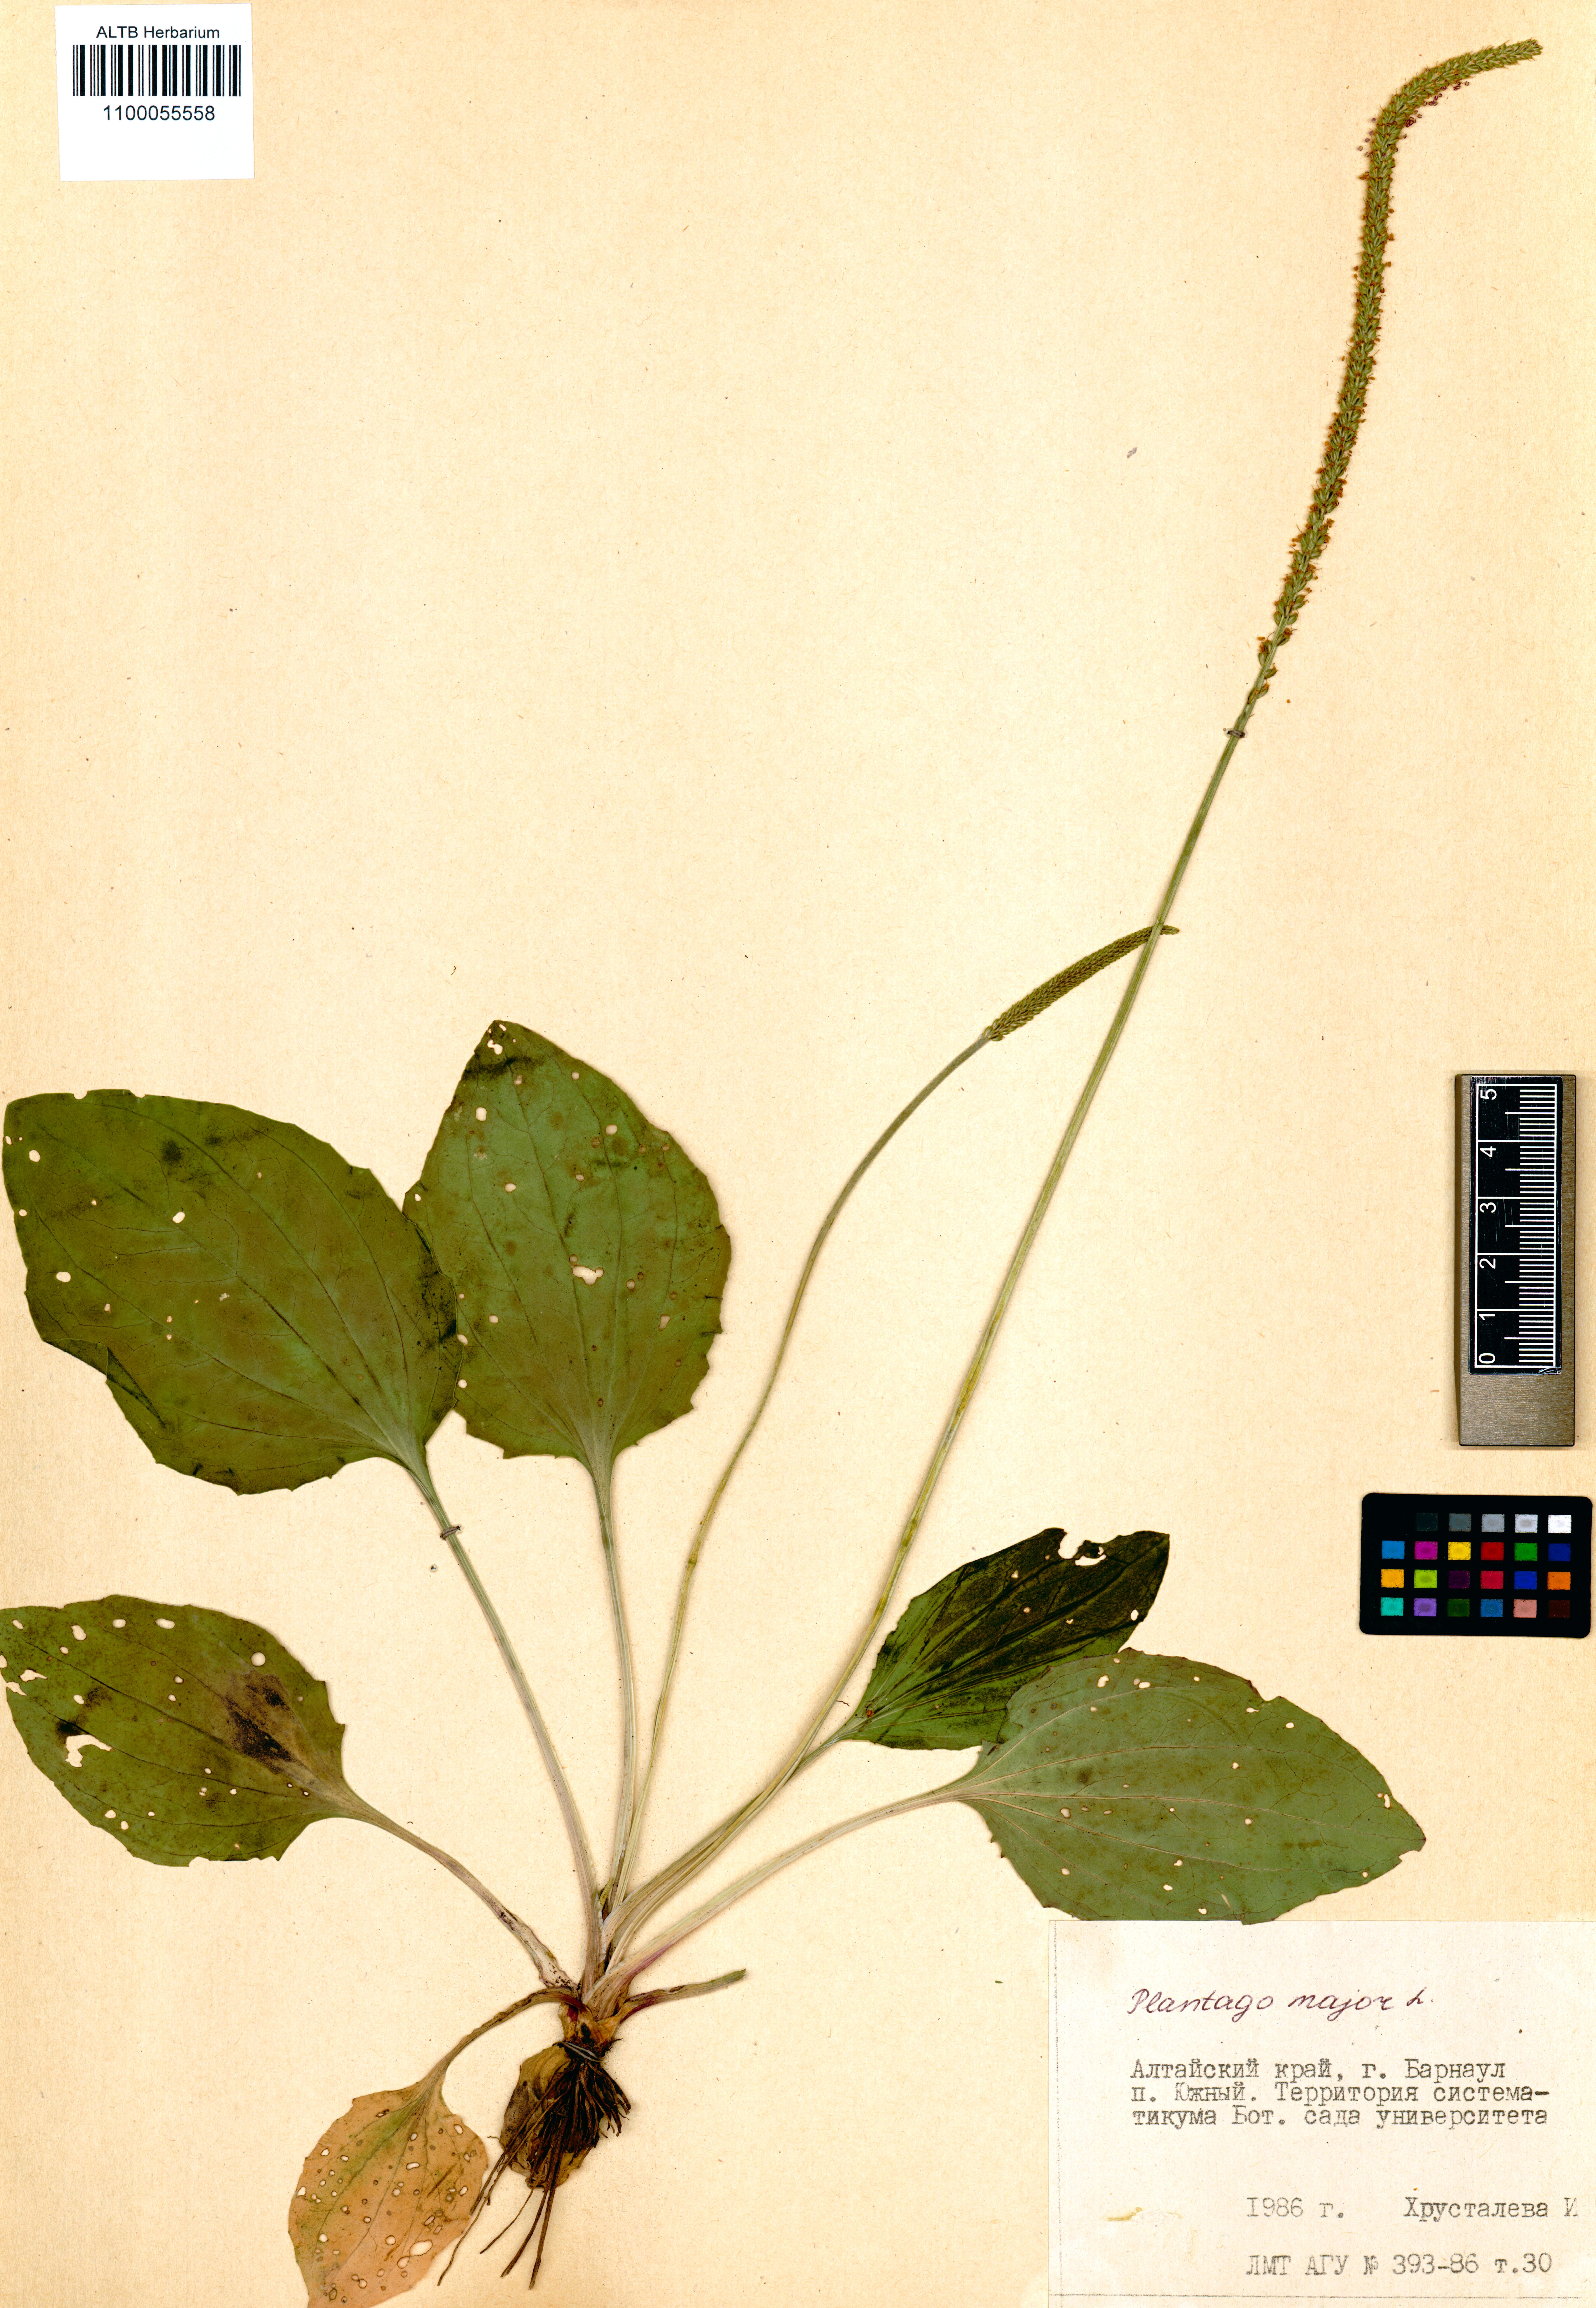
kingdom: Plantae
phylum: Tracheophyta
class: Magnoliopsida
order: Lamiales
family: Plantaginaceae
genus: Plantago
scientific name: Plantago major
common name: Common plantain
